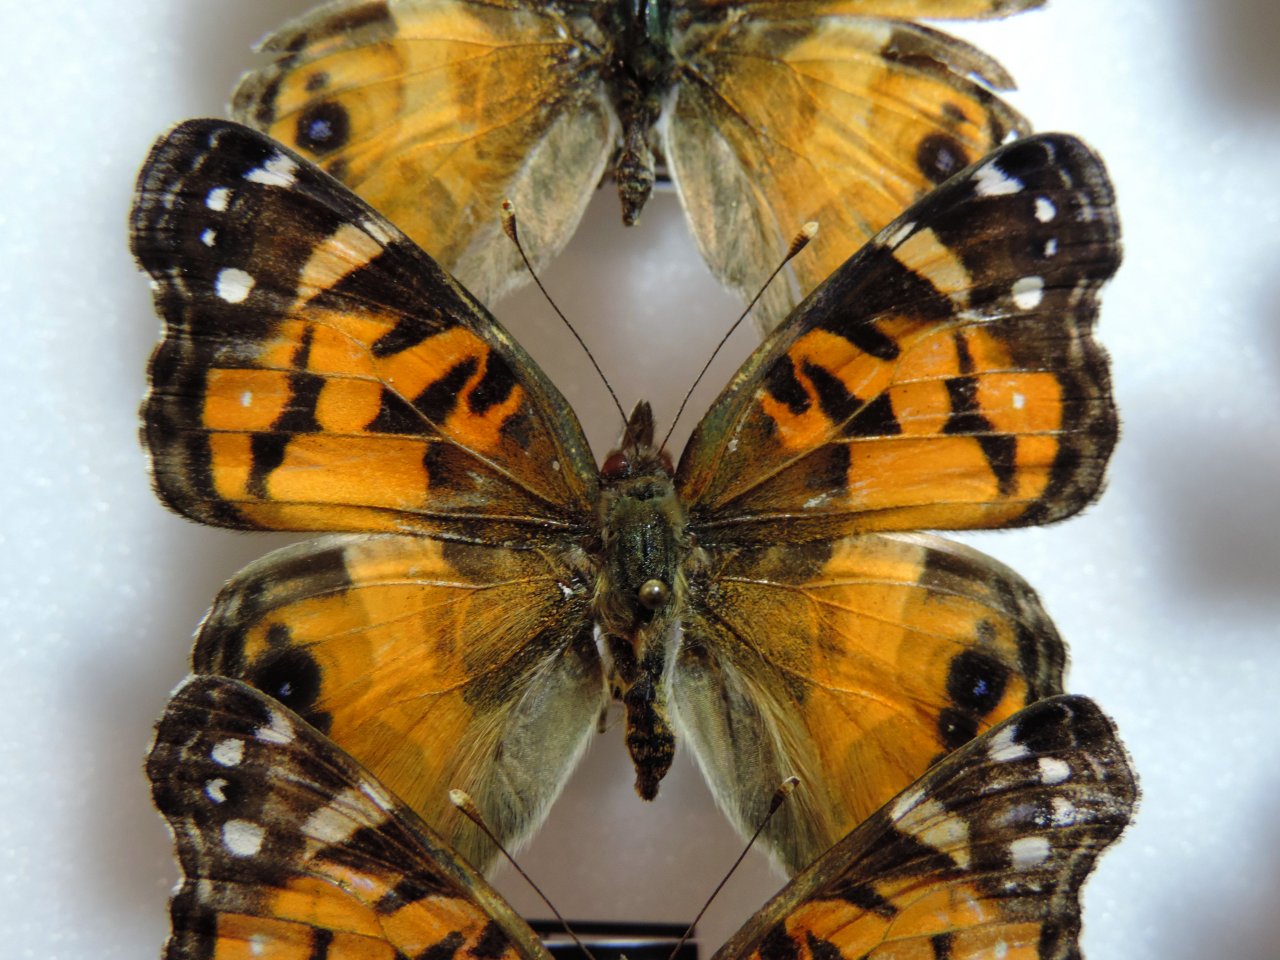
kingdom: Animalia
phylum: Arthropoda
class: Insecta
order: Lepidoptera
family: Nymphalidae
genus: Vanessa
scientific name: Vanessa virginiensis
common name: American Lady
